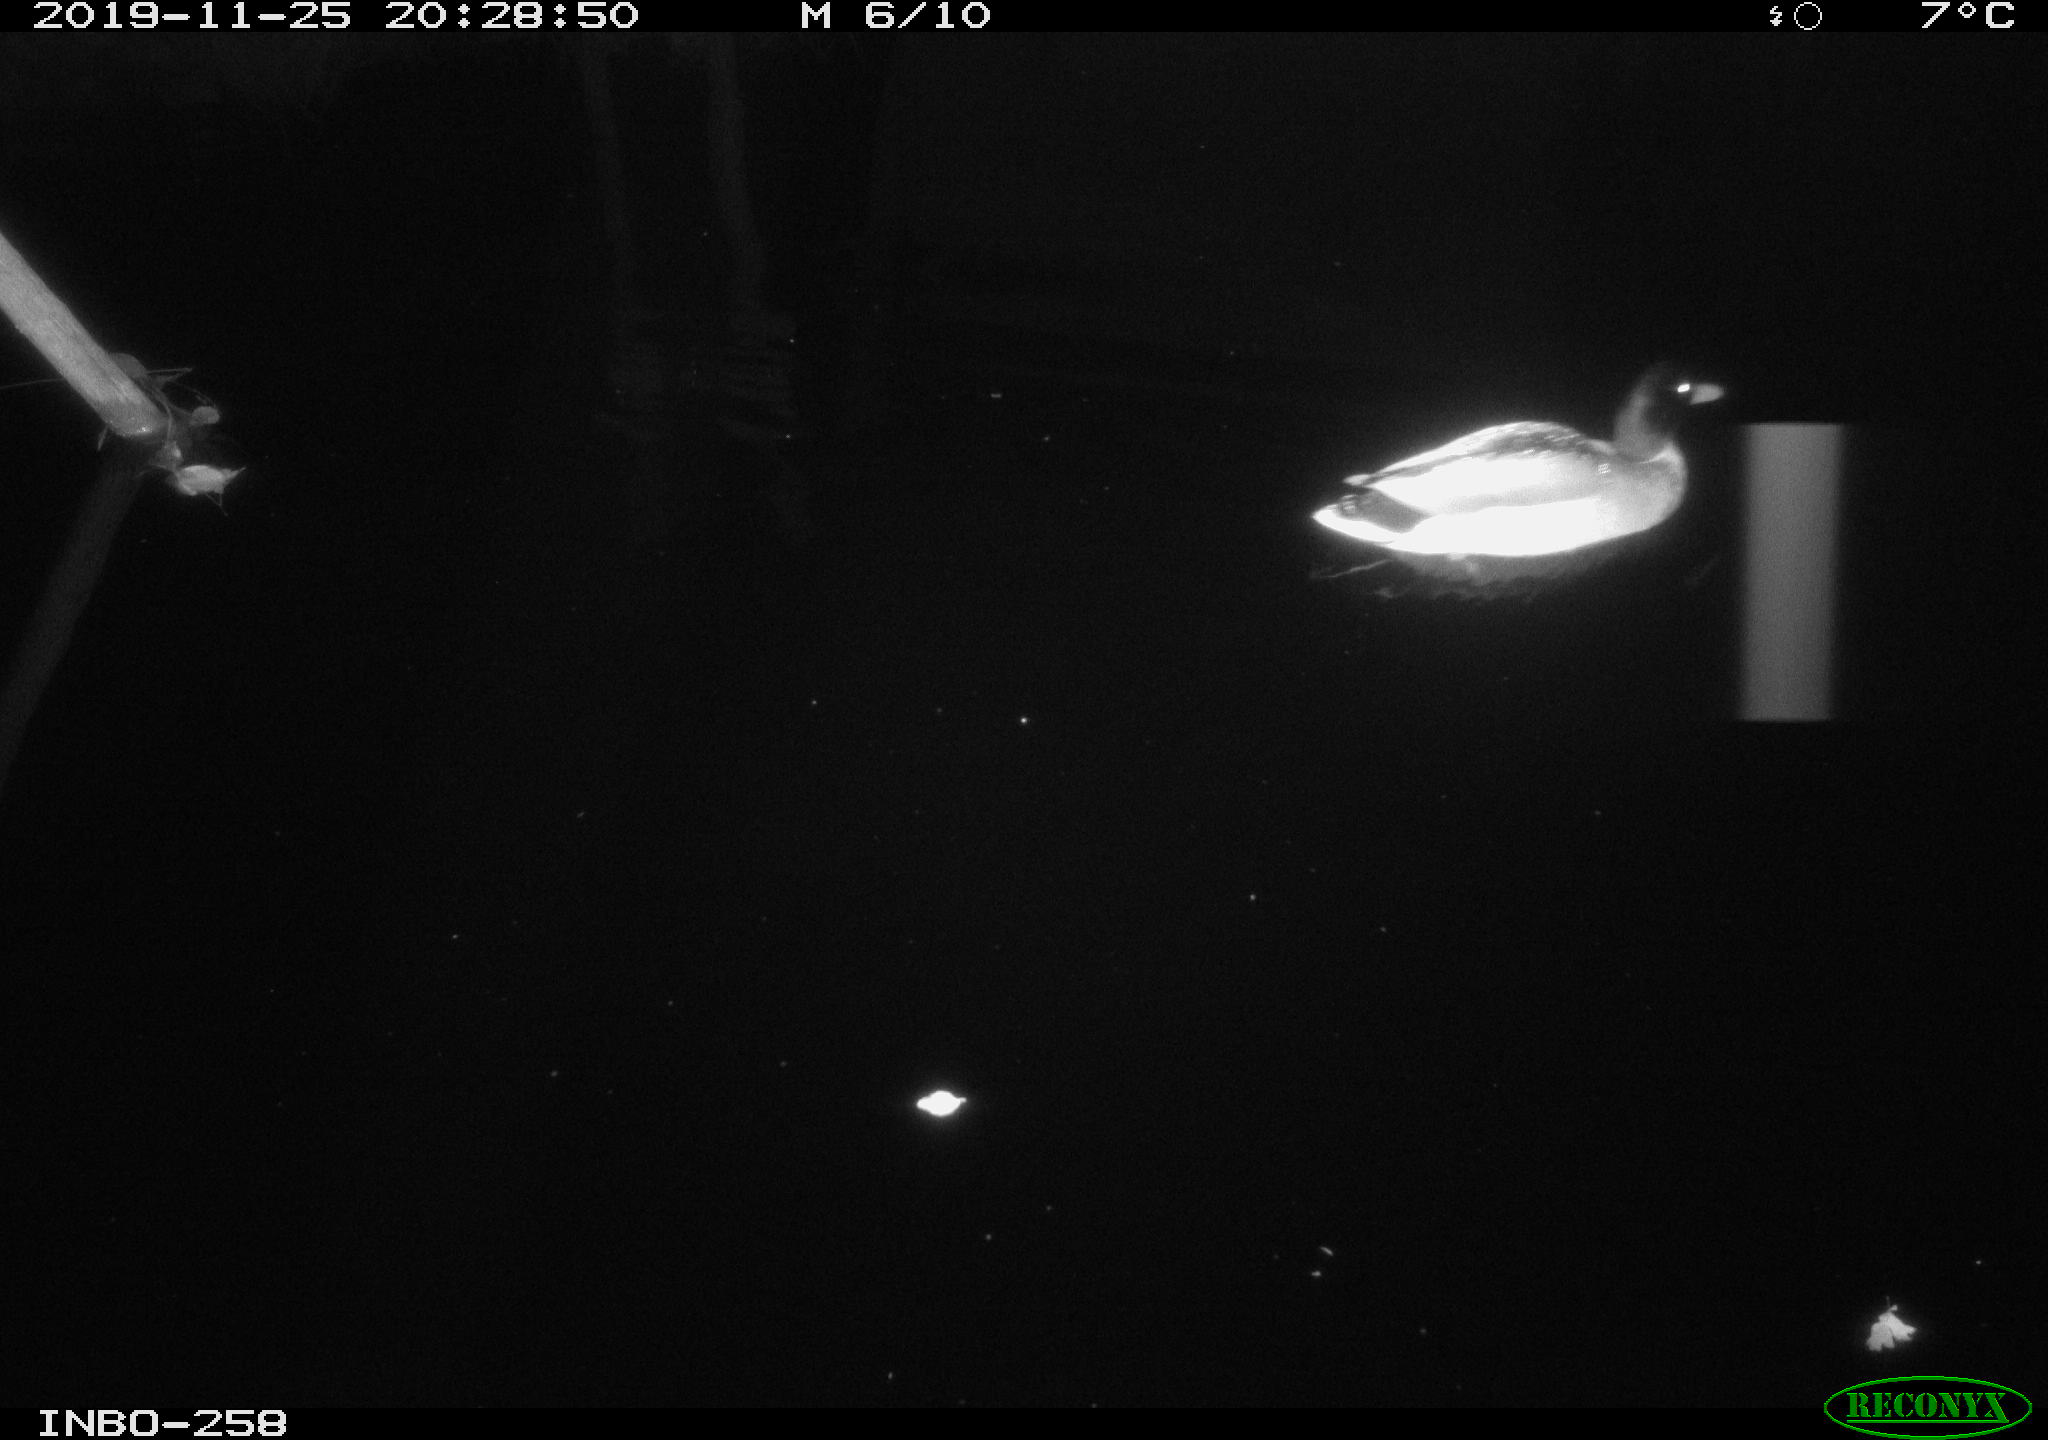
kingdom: Animalia
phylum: Chordata
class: Aves
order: Anseriformes
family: Anatidae
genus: Anas
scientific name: Anas platyrhynchos
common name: Mallard
